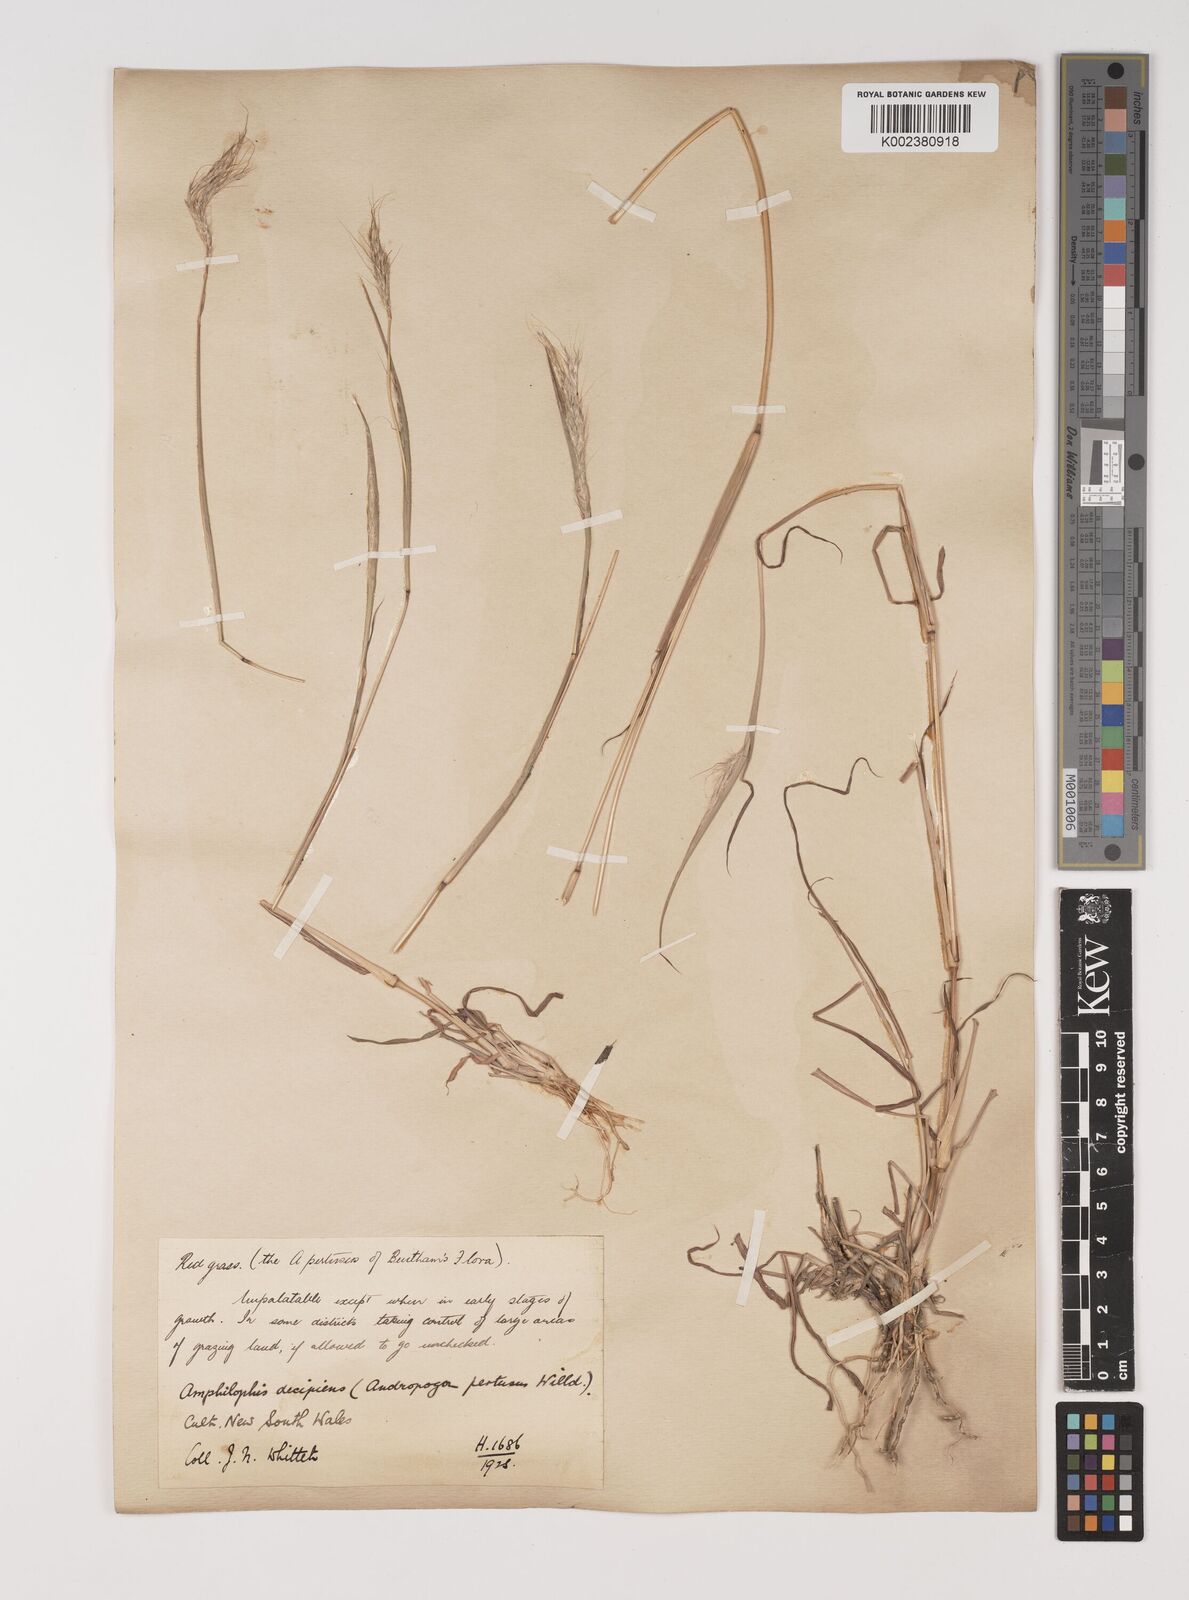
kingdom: Plantae
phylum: Tracheophyta
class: Liliopsida
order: Poales
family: Poaceae
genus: Bothriochloa
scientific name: Bothriochloa decipiens
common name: Pitted-bluegrass
